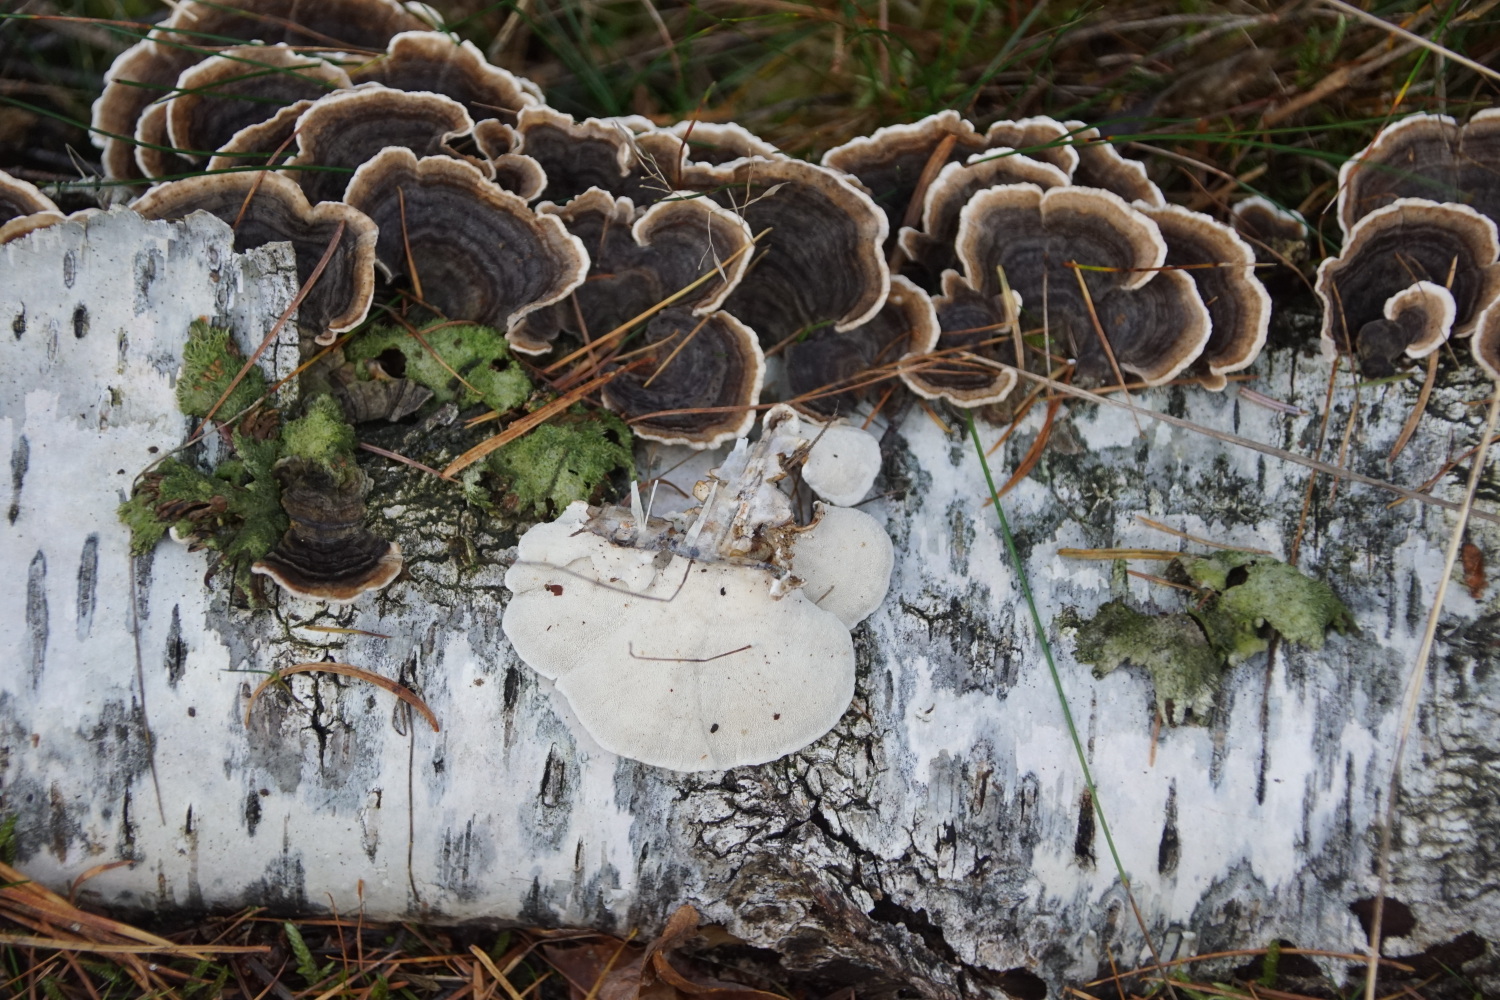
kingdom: Fungi
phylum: Basidiomycota
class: Agaricomycetes
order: Polyporales
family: Polyporaceae
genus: Trametes
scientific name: Trametes versicolor
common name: broget læderporesvamp
